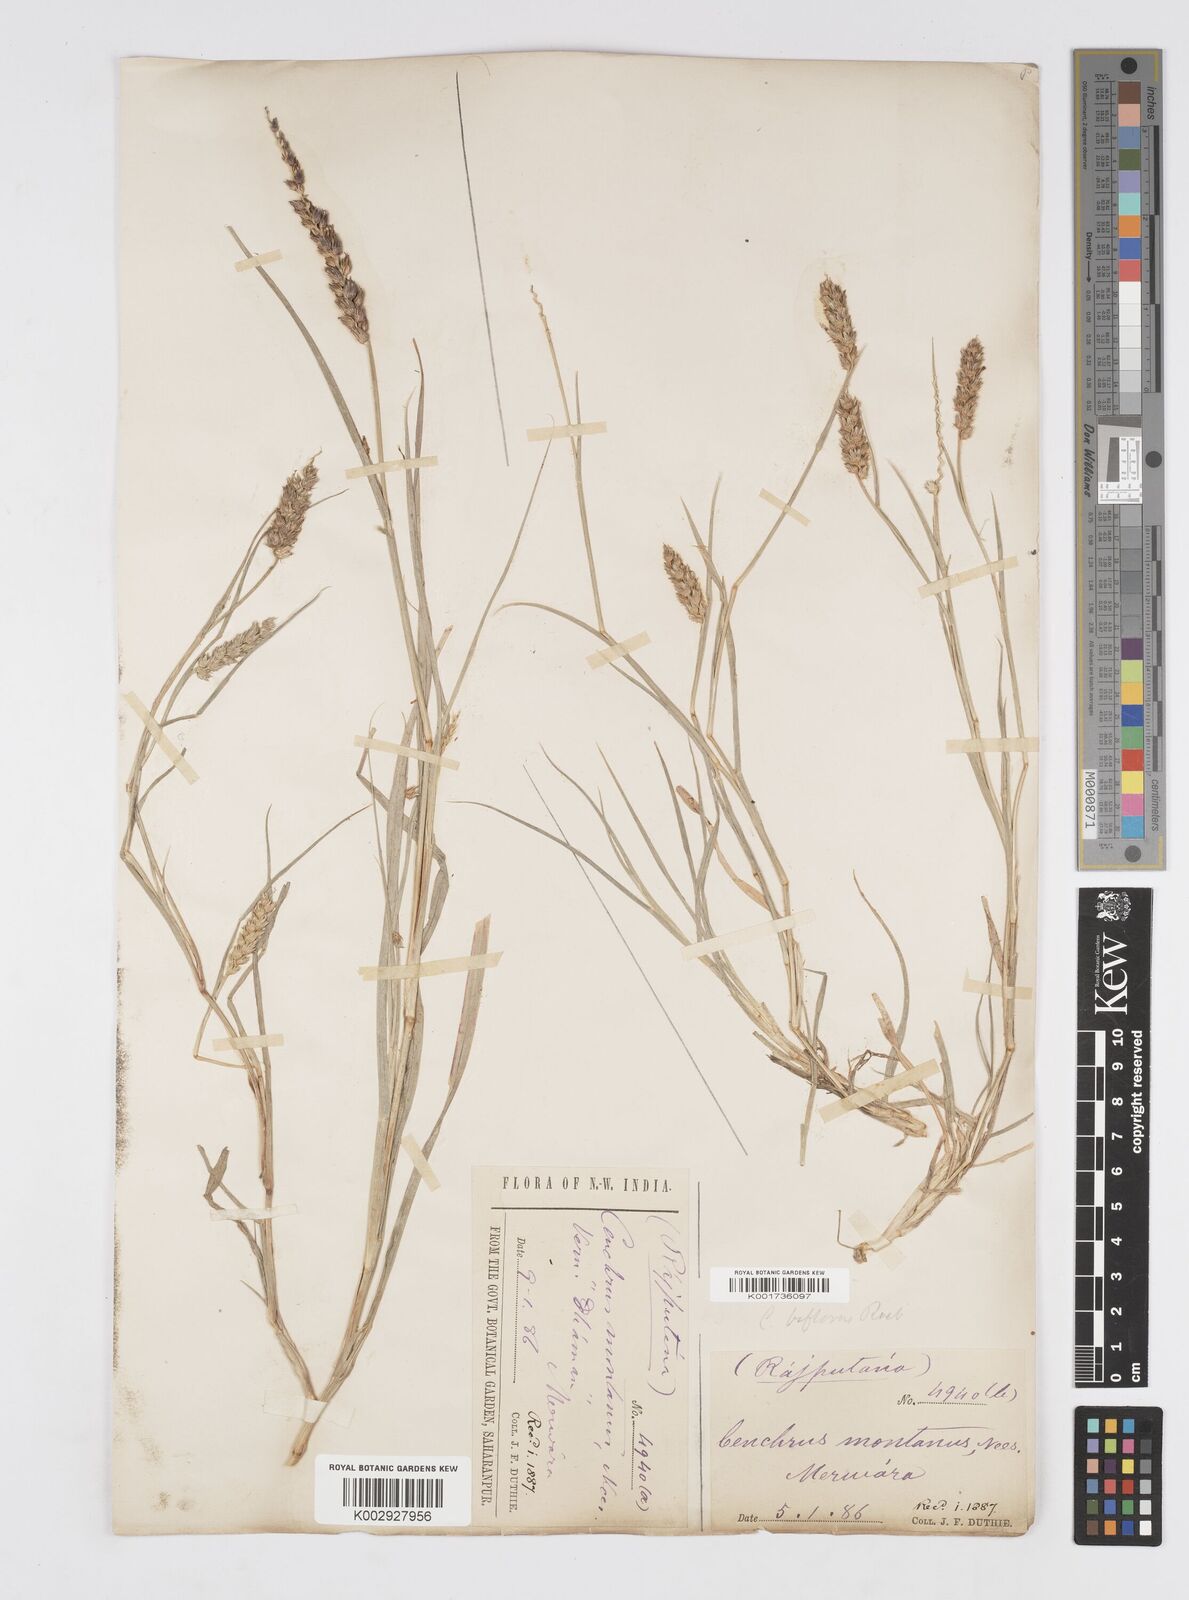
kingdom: Plantae
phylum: Tracheophyta
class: Liliopsida
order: Poales
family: Poaceae
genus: Cenchrus
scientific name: Cenchrus setigerus
